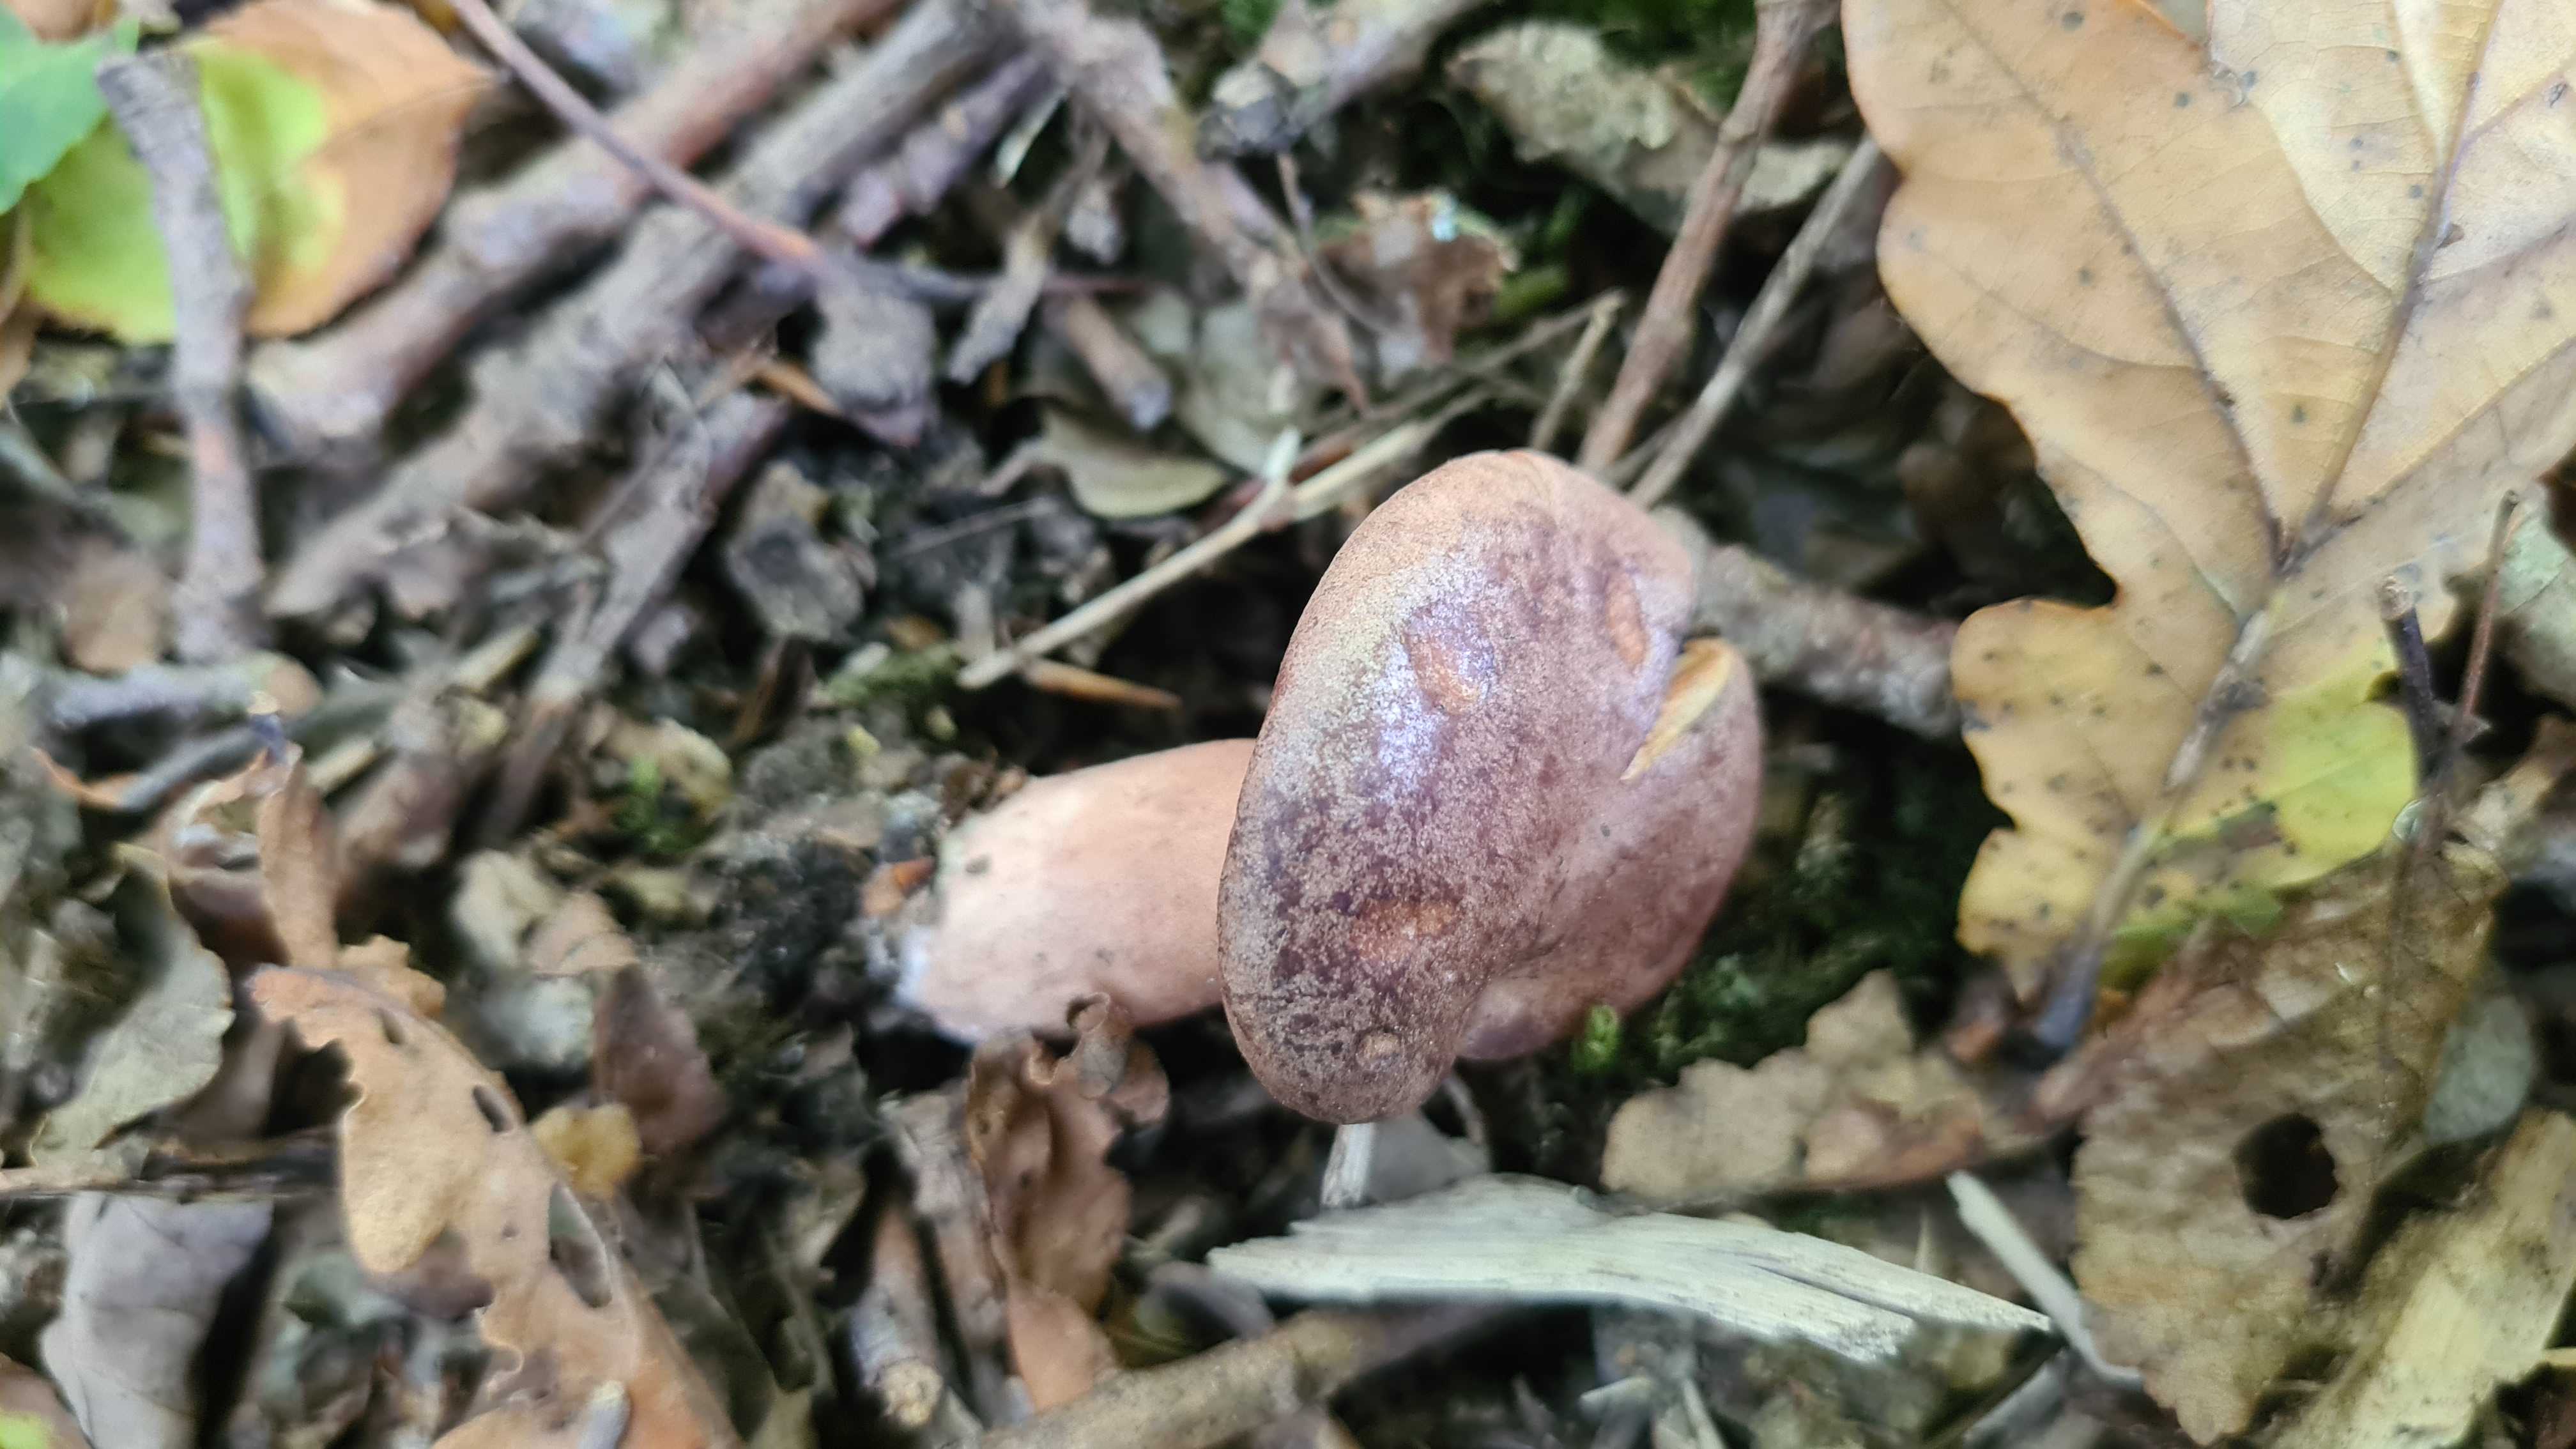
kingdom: Fungi
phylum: Basidiomycota
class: Agaricomycetes
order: Russulales
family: Russulaceae
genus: Lactarius
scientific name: Lactarius quietus
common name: ege-mælkehat
